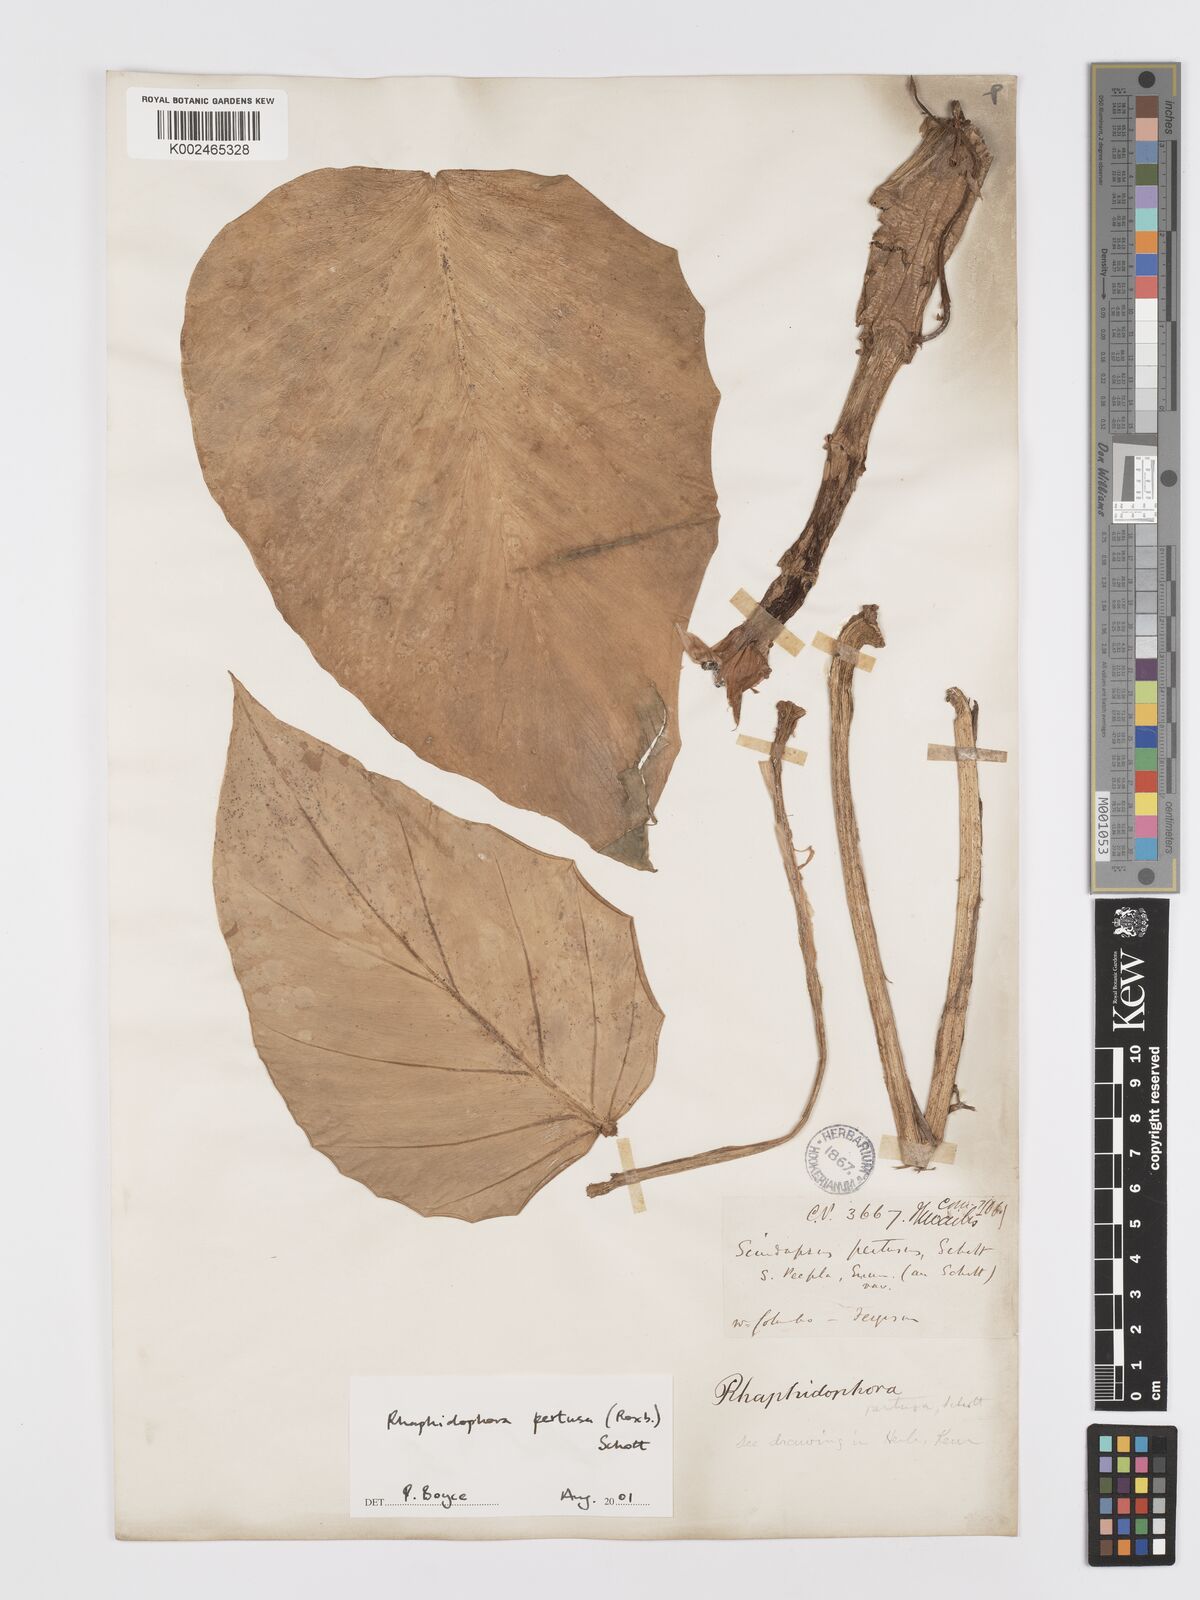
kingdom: Plantae
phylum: Tracheophyta
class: Liliopsida
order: Alismatales
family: Araceae
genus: Rhaphidophora
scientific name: Rhaphidophora pertusa
